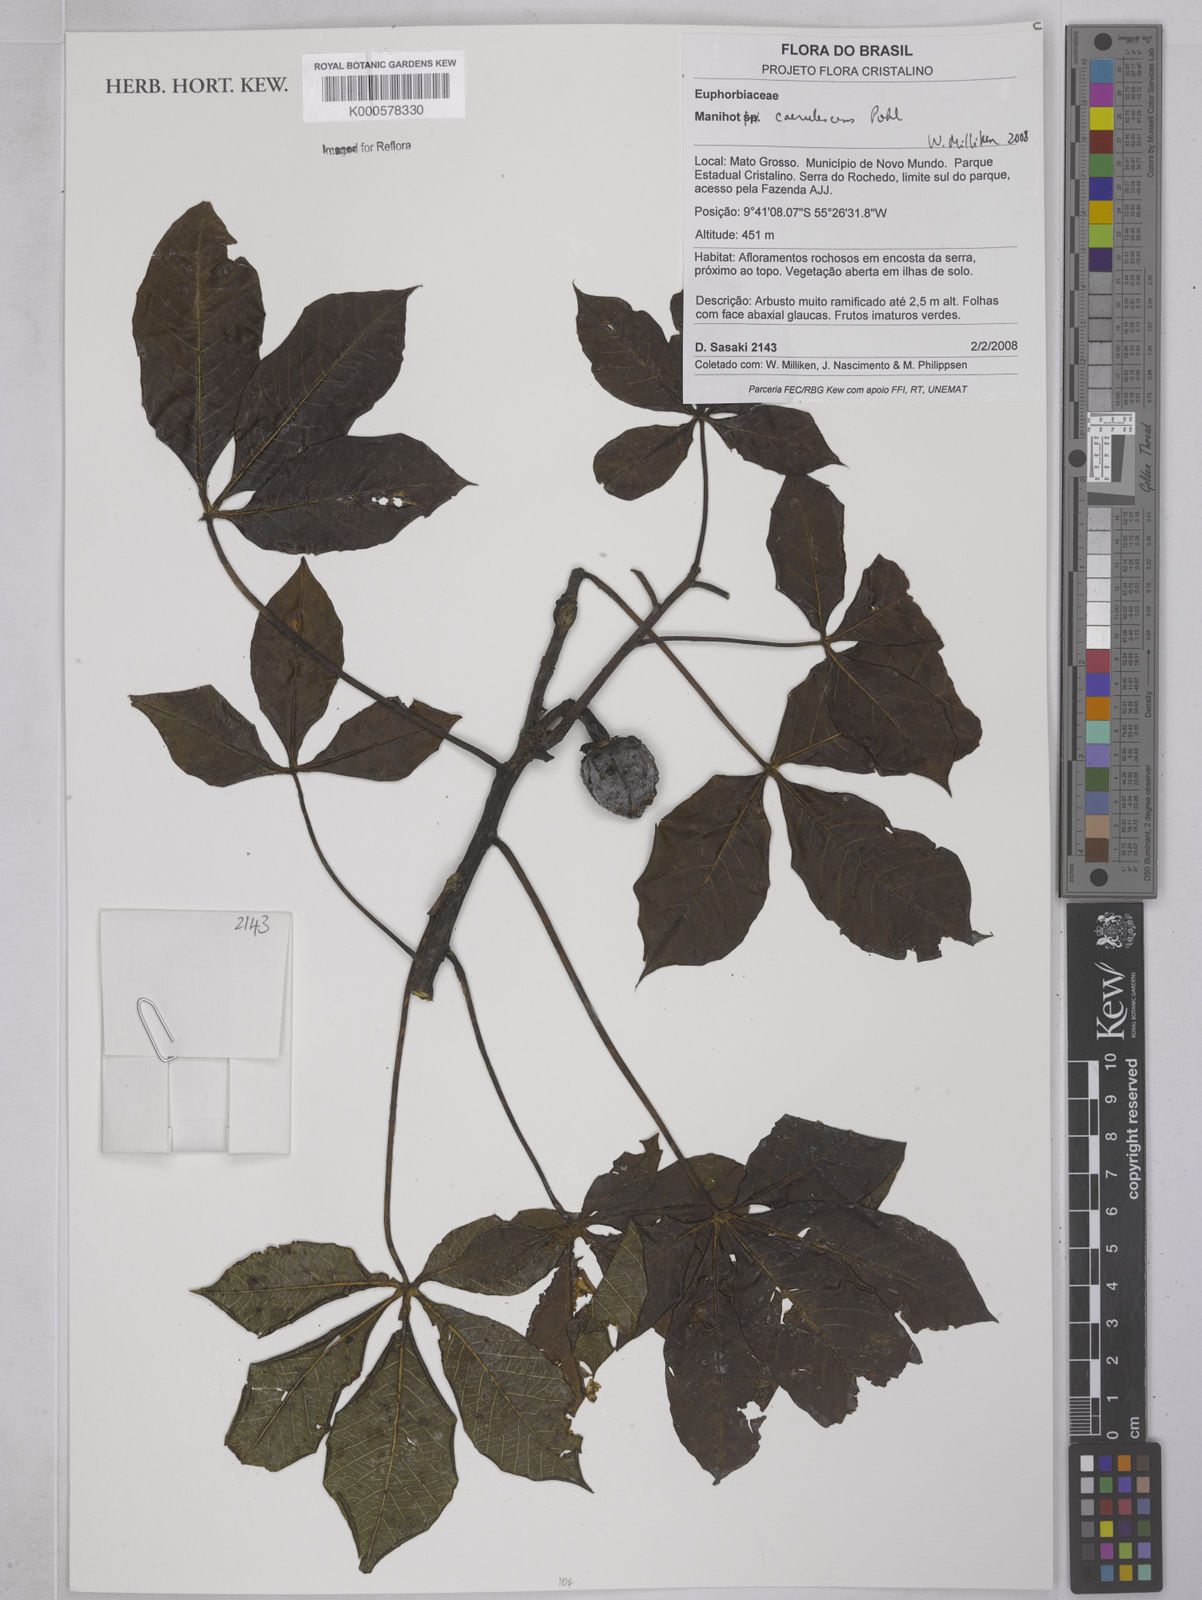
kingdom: Plantae
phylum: Tracheophyta
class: Magnoliopsida
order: Malpighiales
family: Euphorbiaceae
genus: Manihot
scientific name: Manihot caerulescens
